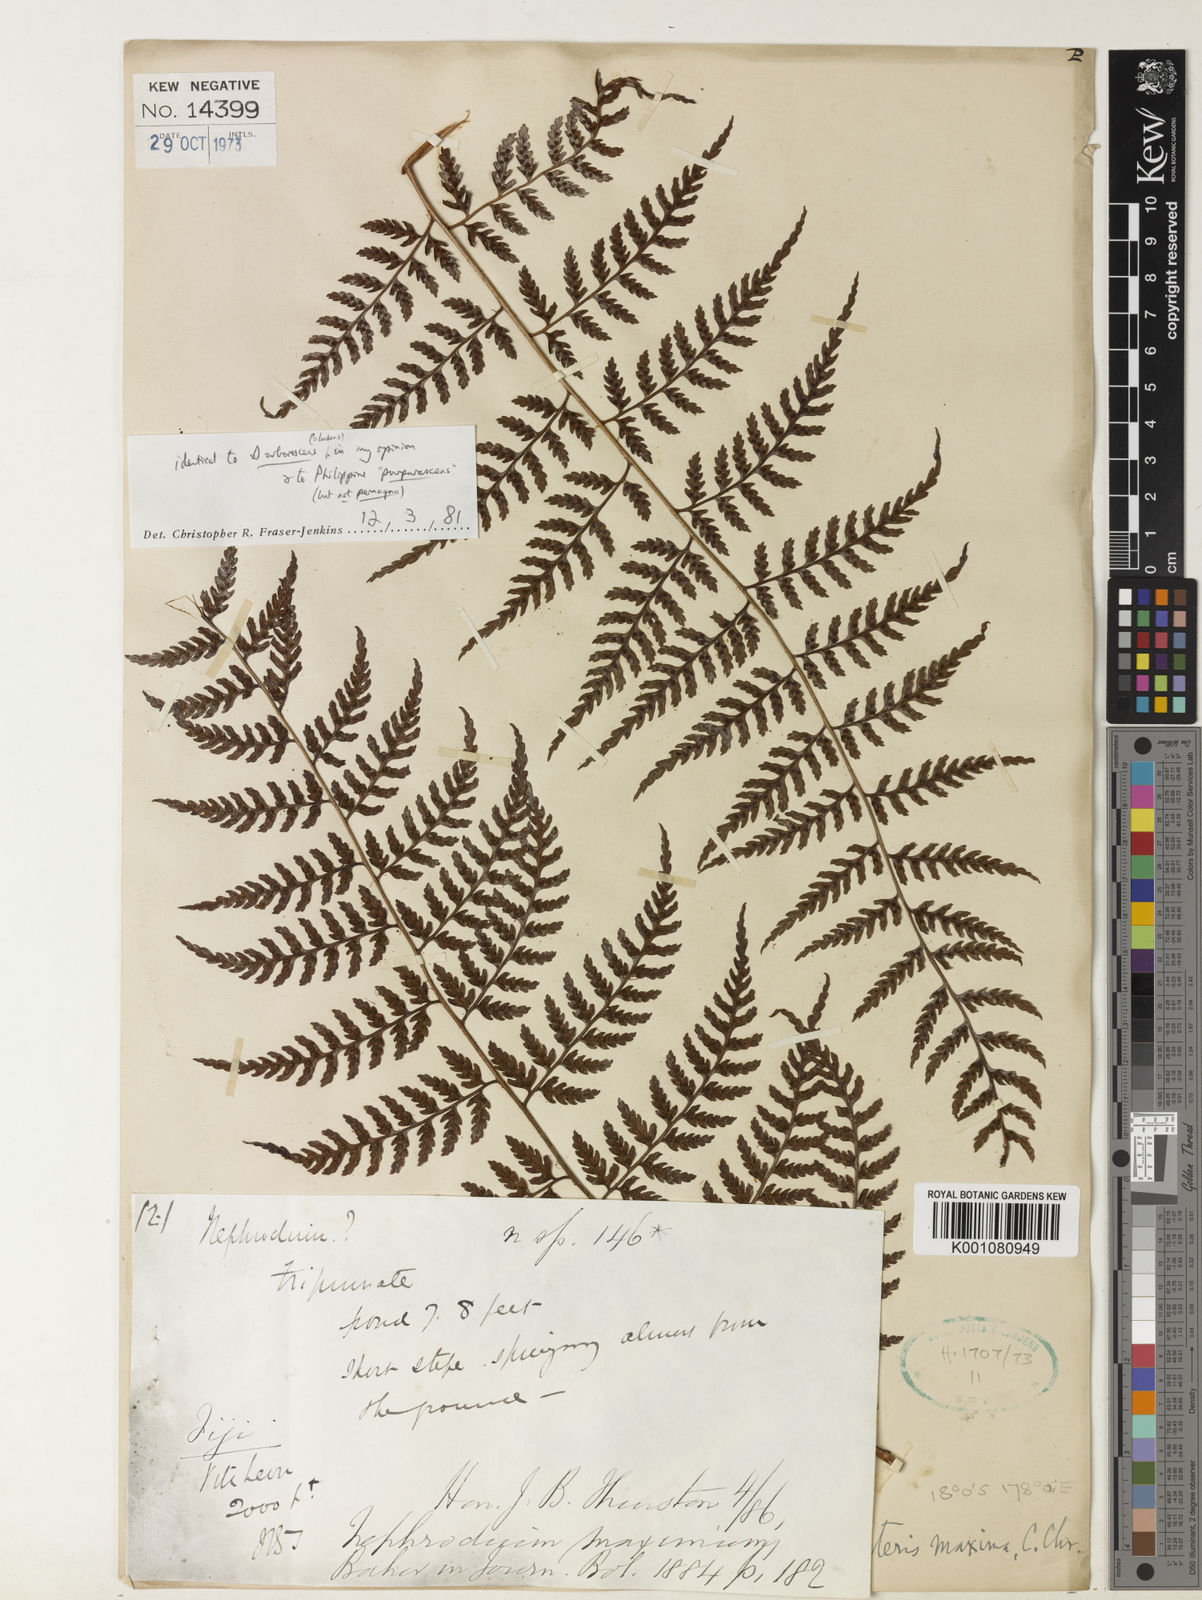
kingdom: Plantae
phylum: Tracheophyta
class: Polypodiopsida
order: Polypodiales
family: Dryopteridaceae
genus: Dryopteris
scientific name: Dryopteris maxima
